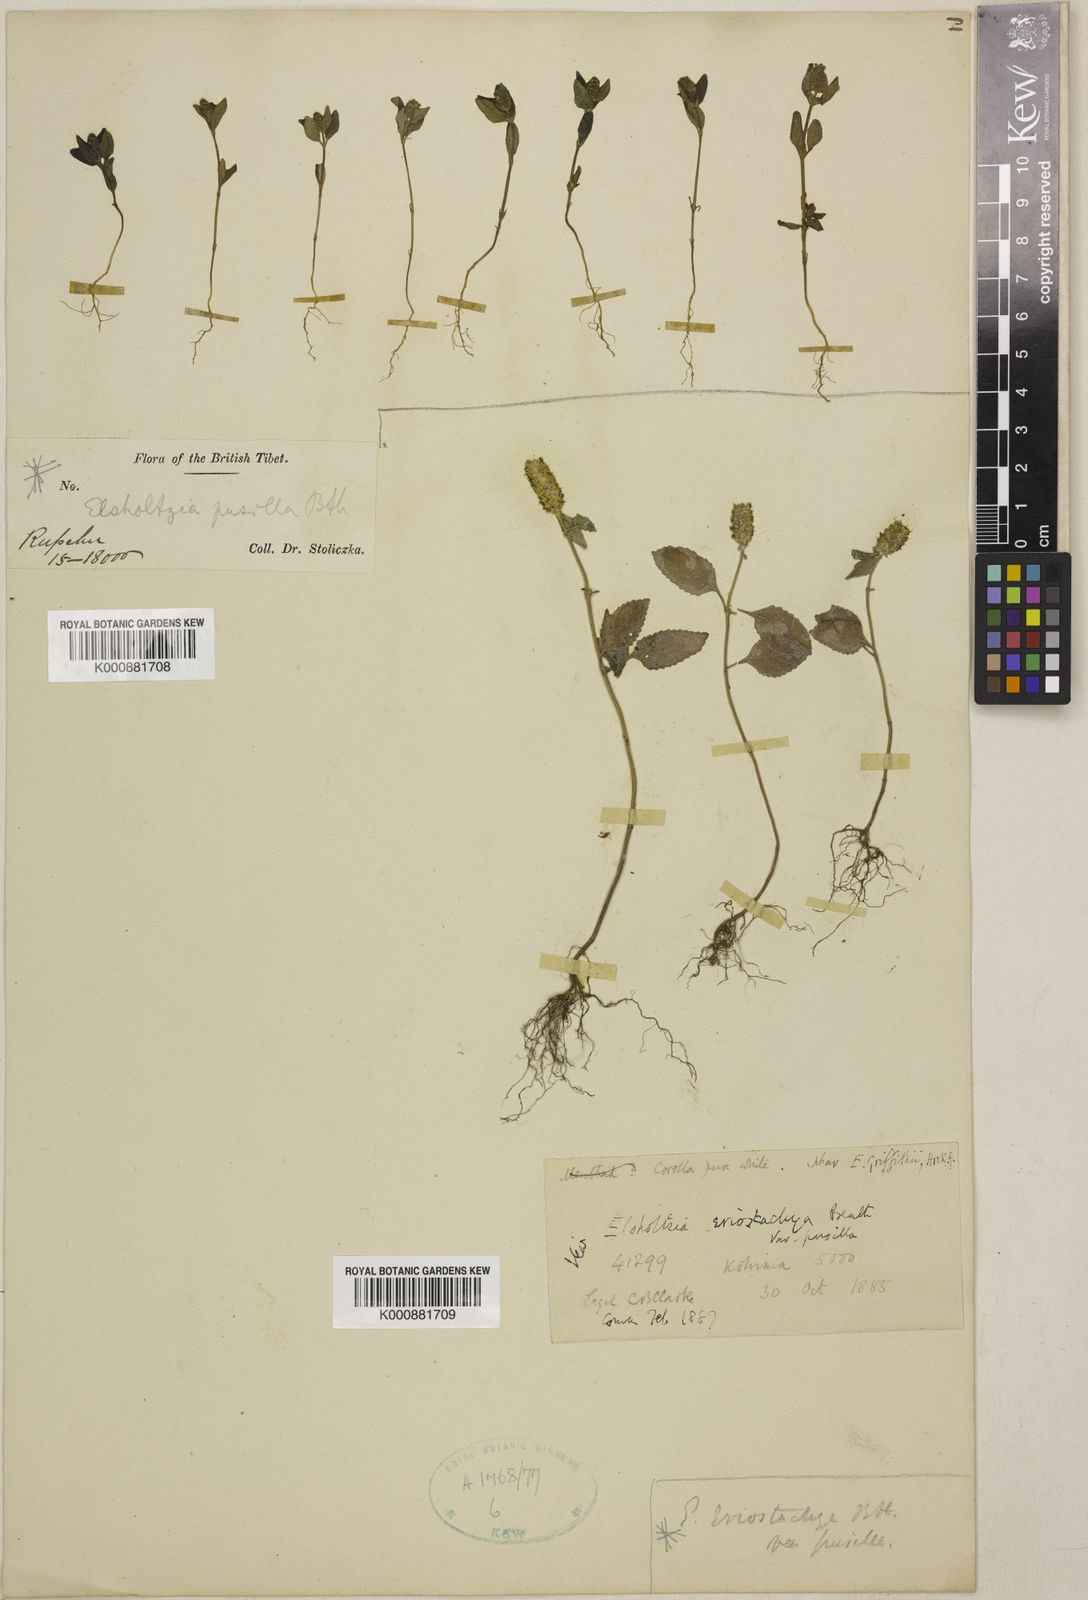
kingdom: Plantae
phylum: Tracheophyta
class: Magnoliopsida
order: Lamiales
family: Lamiaceae
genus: Elsholtzia
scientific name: Elsholtzia eriostachya
